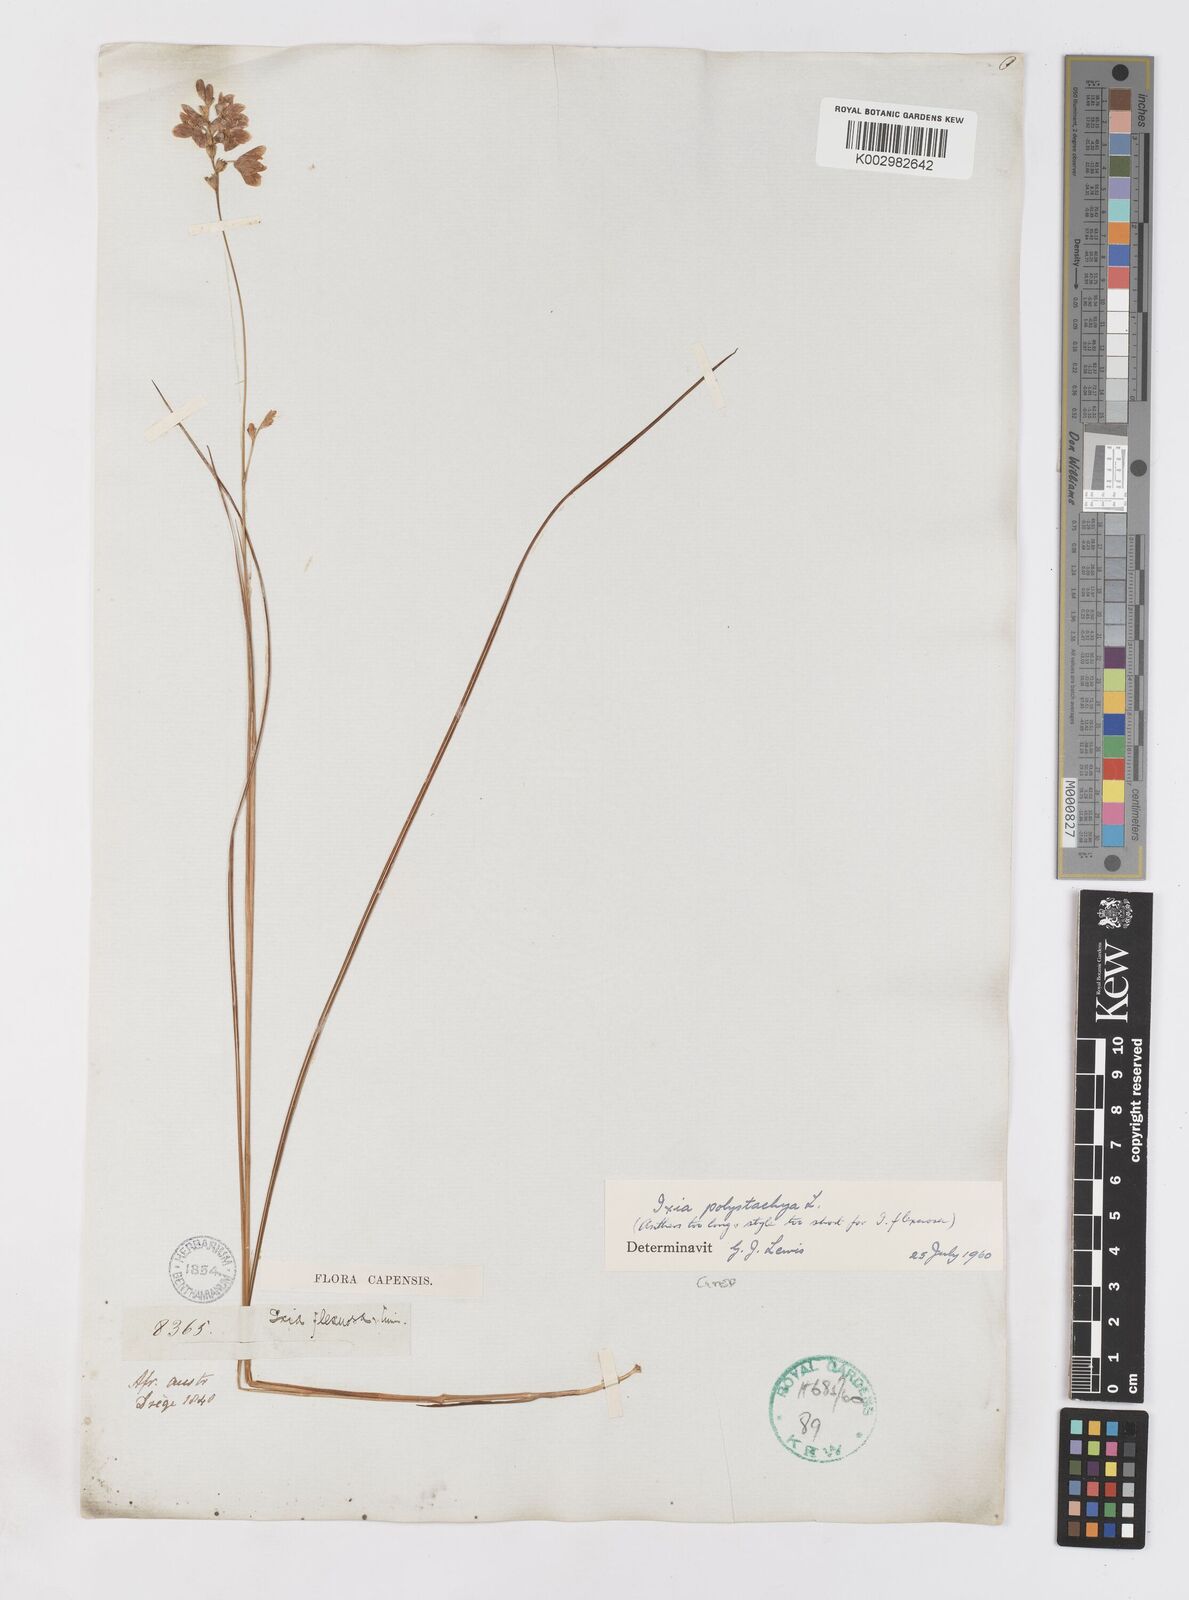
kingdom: Plantae
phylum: Tracheophyta
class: Liliopsida
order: Asparagales
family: Iridaceae
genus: Ixia
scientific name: Ixia polystachya
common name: White-and-yellow-flower cornlily
